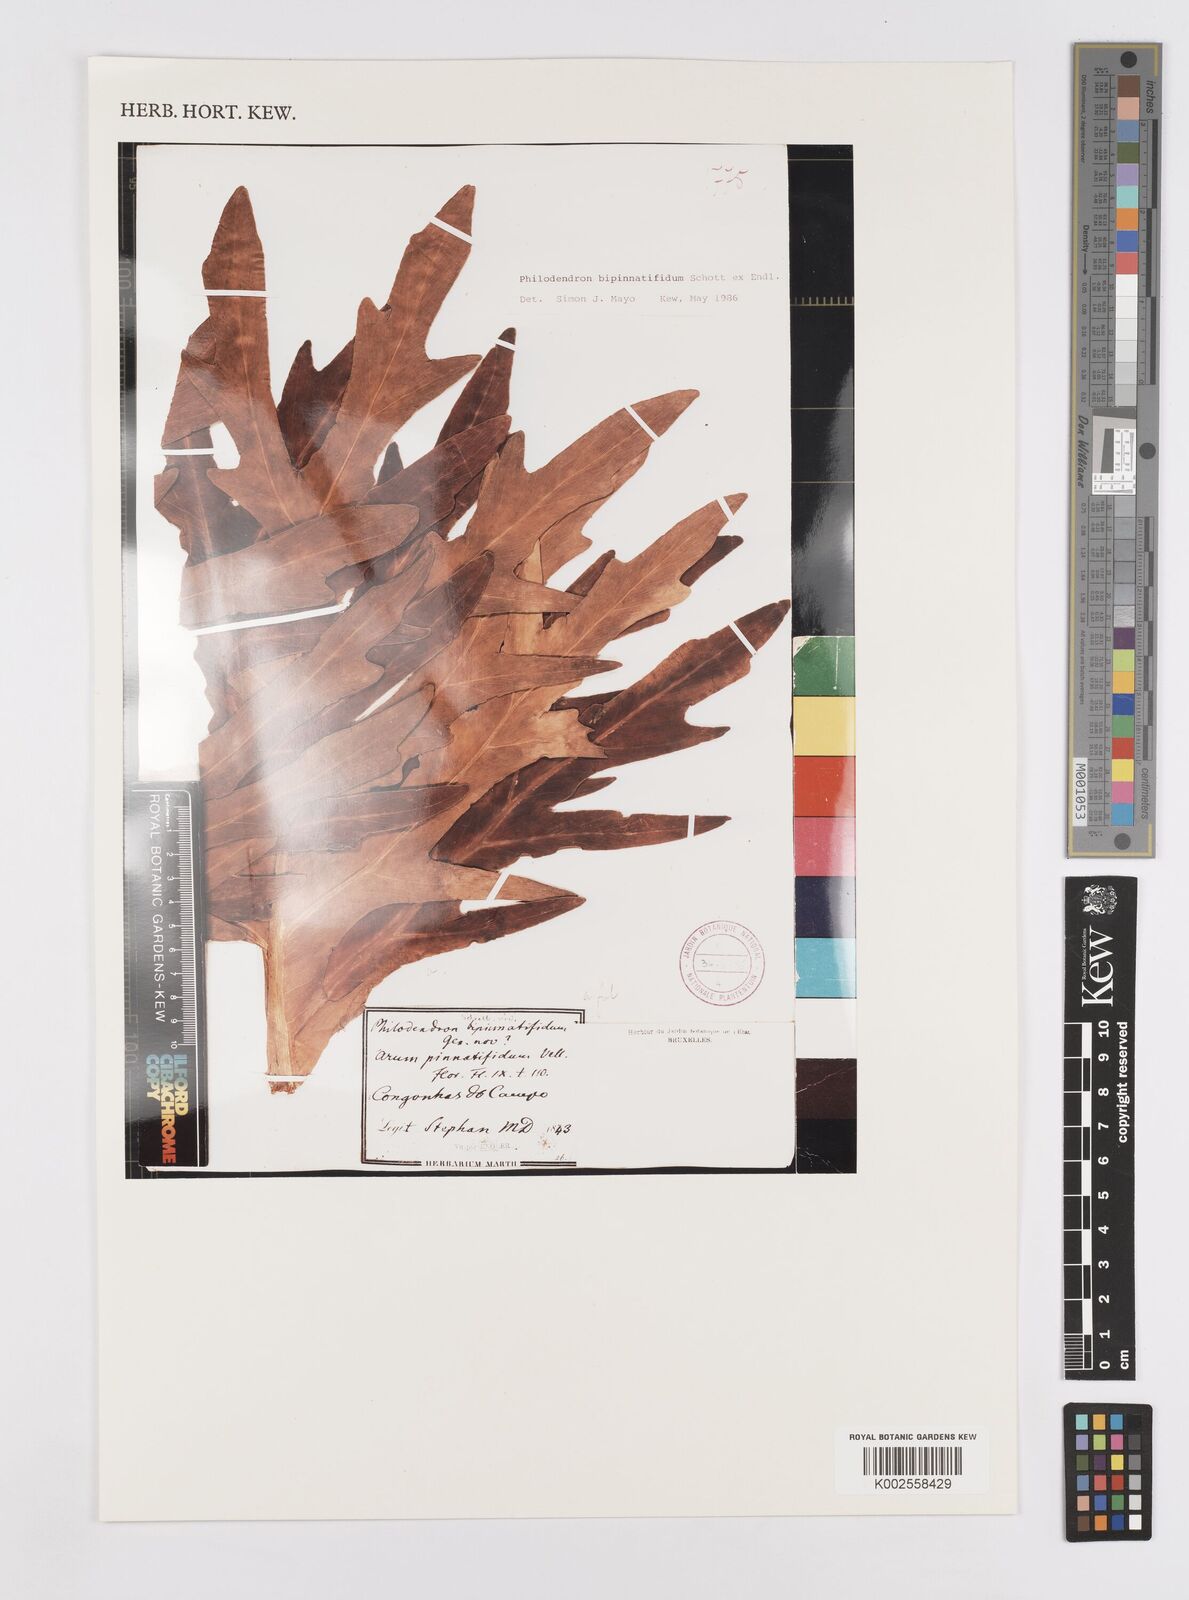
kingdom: Plantae
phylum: Tracheophyta
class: Liliopsida
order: Alismatales
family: Araceae
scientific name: Araceae
